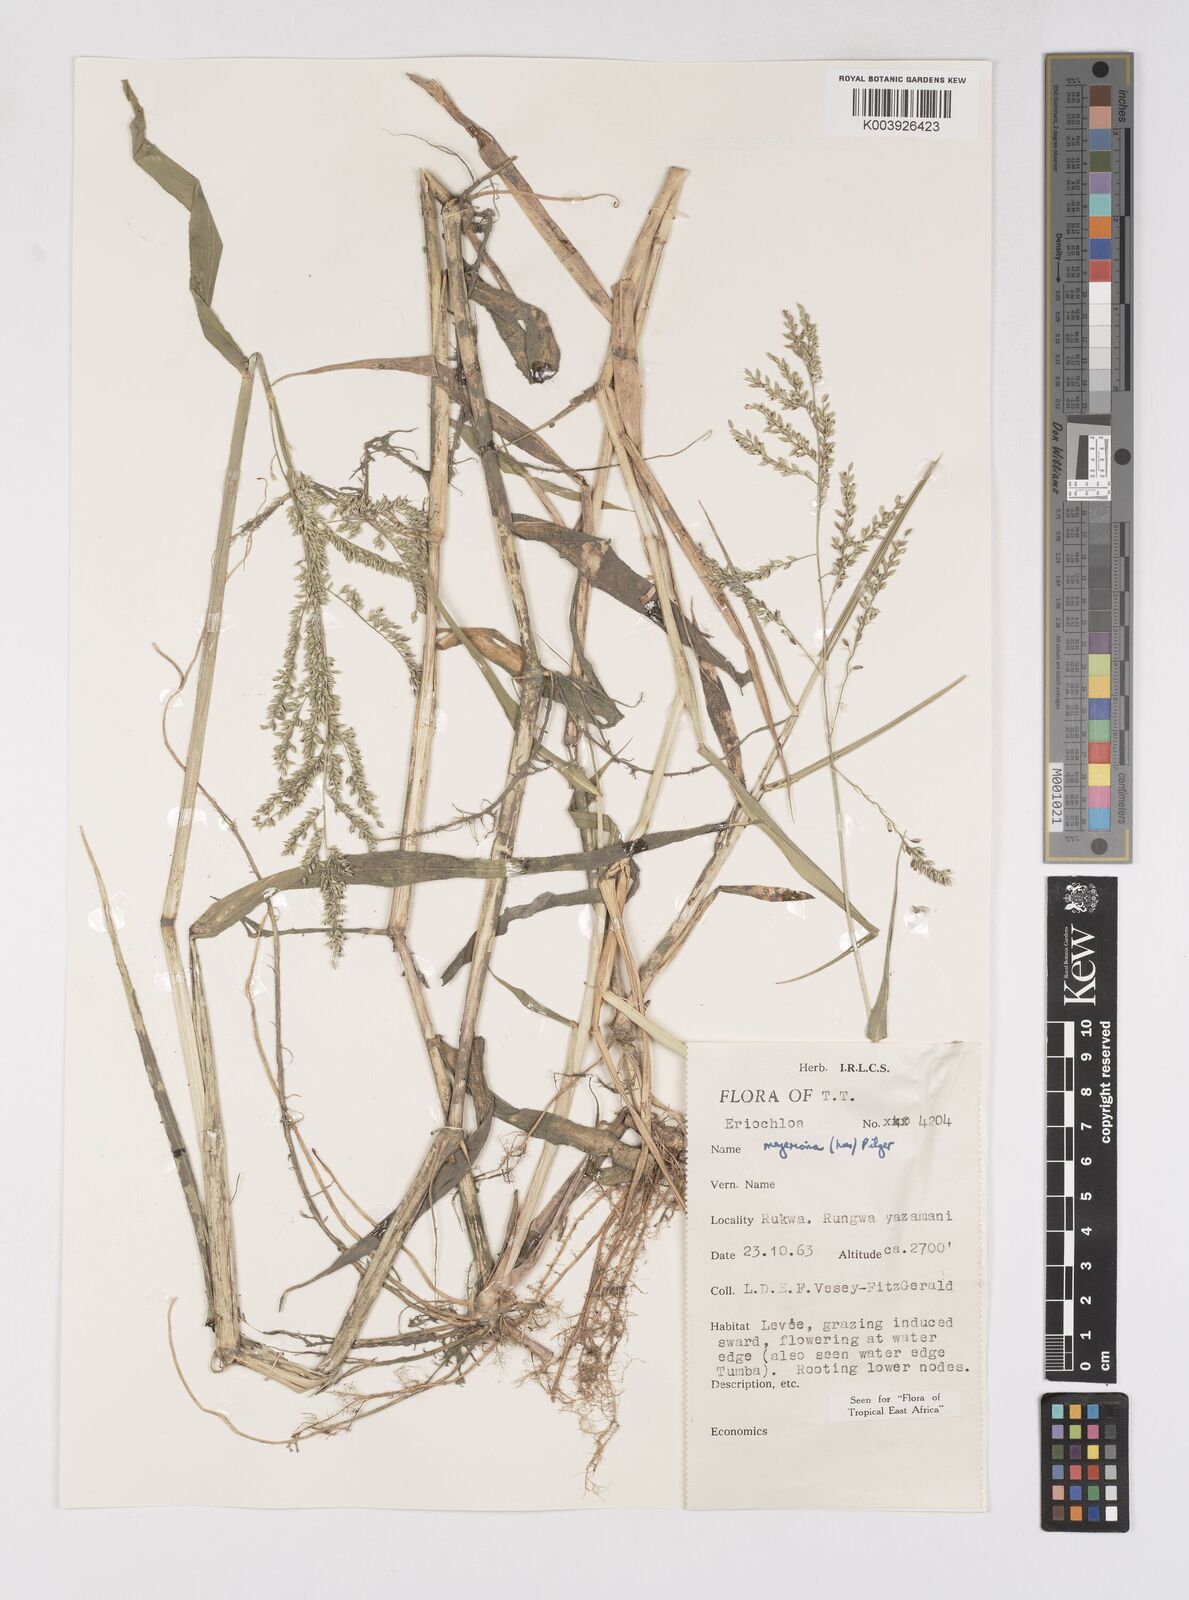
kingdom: Plantae
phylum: Tracheophyta
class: Liliopsida
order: Poales
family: Poaceae
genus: Eriochloa
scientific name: Eriochloa meyeriana
